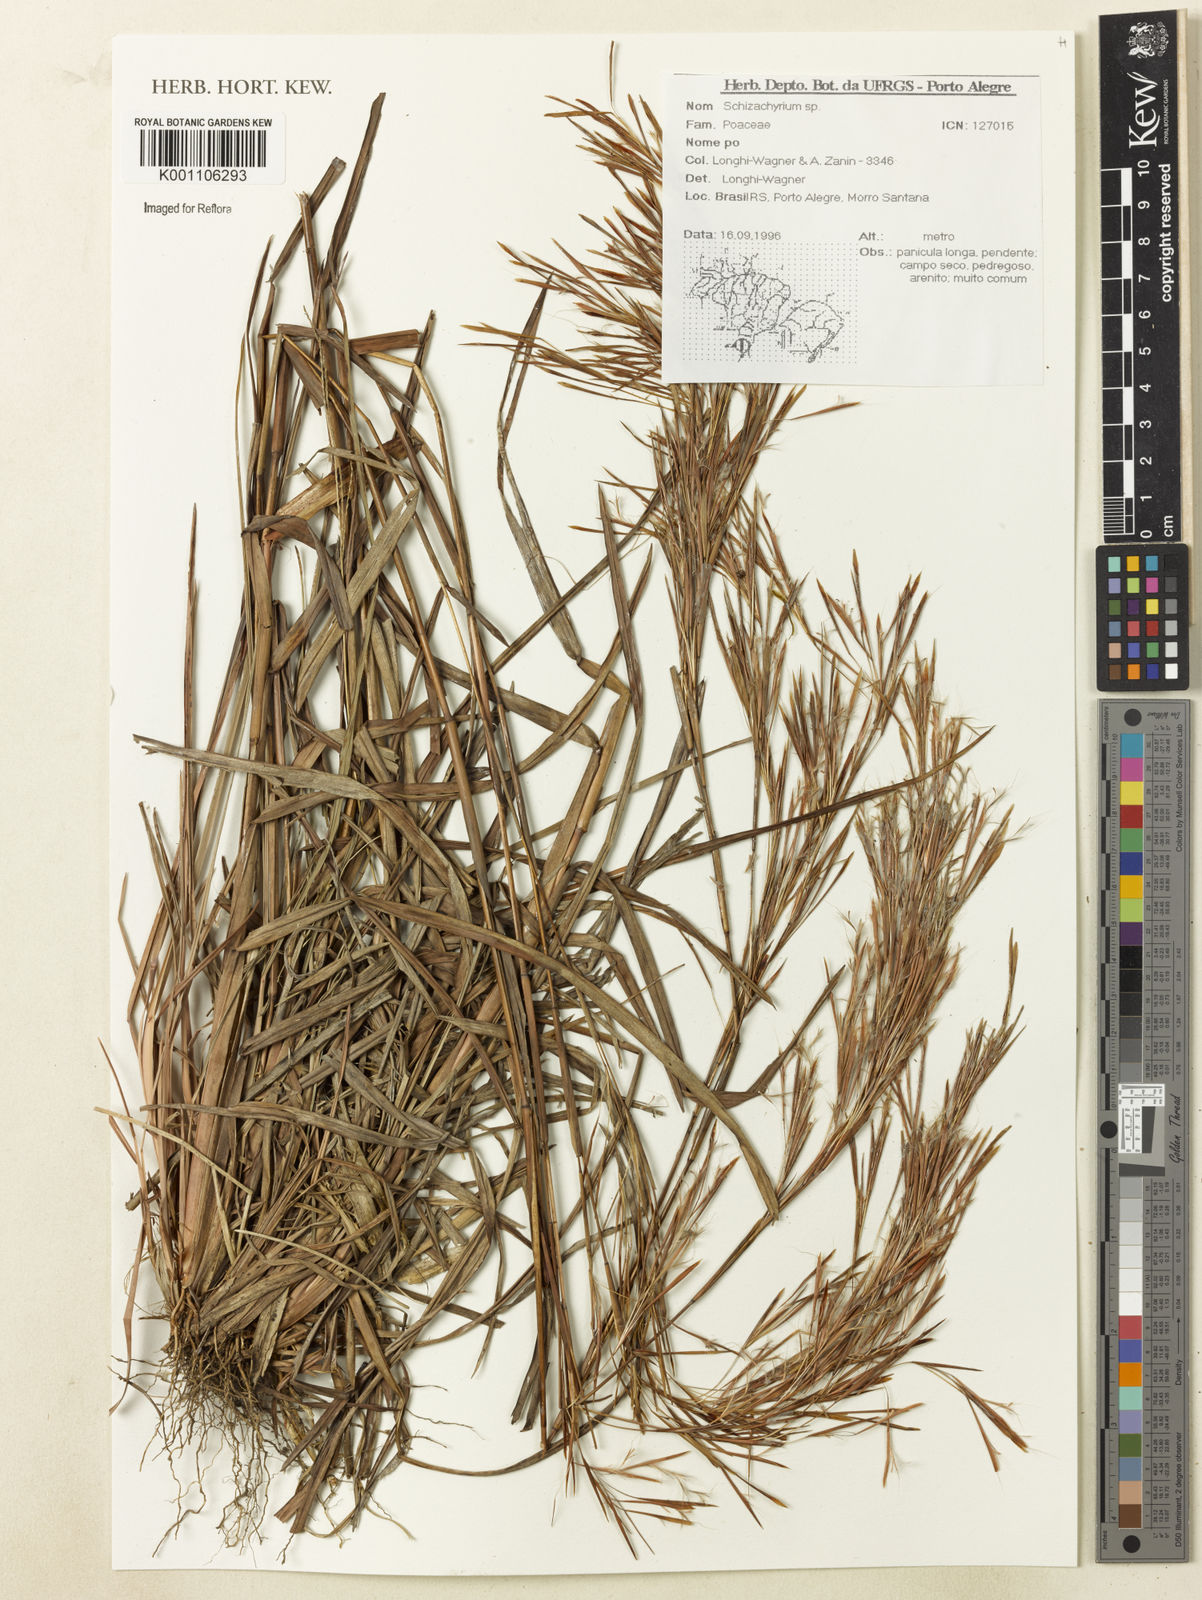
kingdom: Plantae
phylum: Tracheophyta
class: Liliopsida
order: Poales
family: Poaceae
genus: Schizachyrium
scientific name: Schizachyrium
